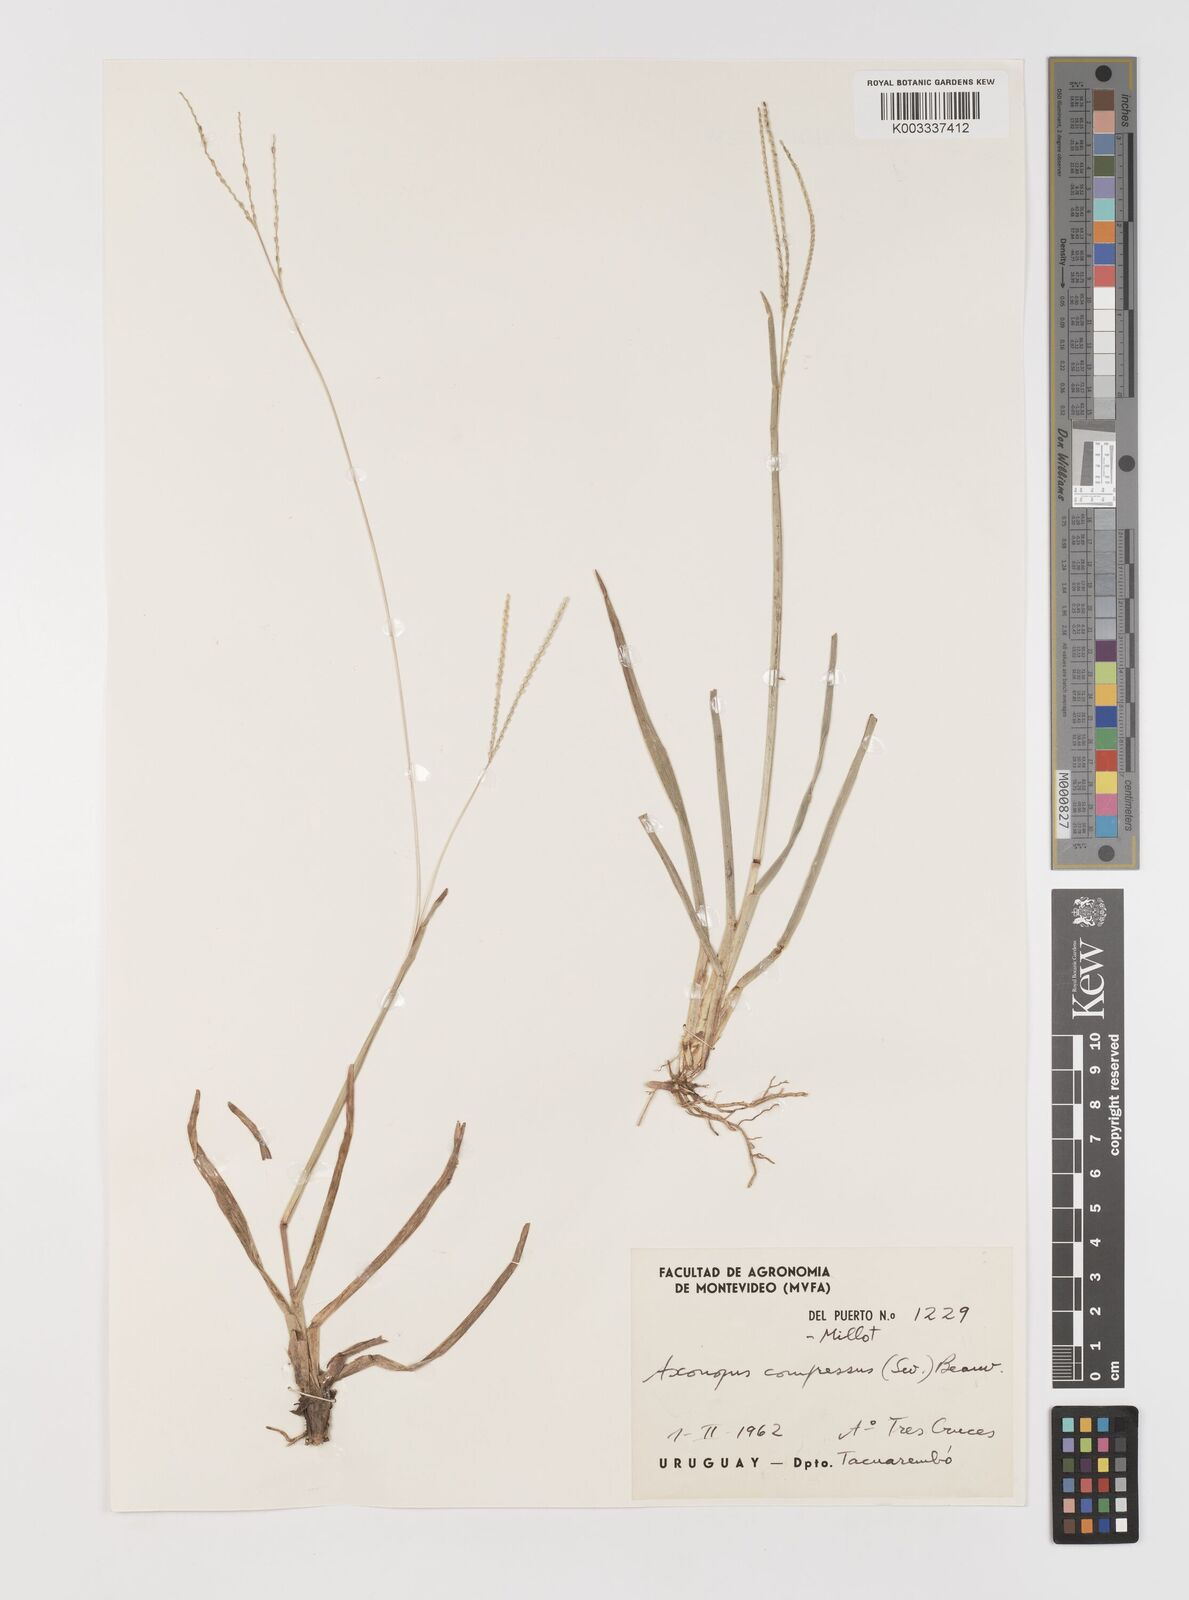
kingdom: Plantae
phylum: Tracheophyta
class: Liliopsida
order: Poales
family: Poaceae
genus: Axonopus
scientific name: Axonopus compressus
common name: American carpet grass
